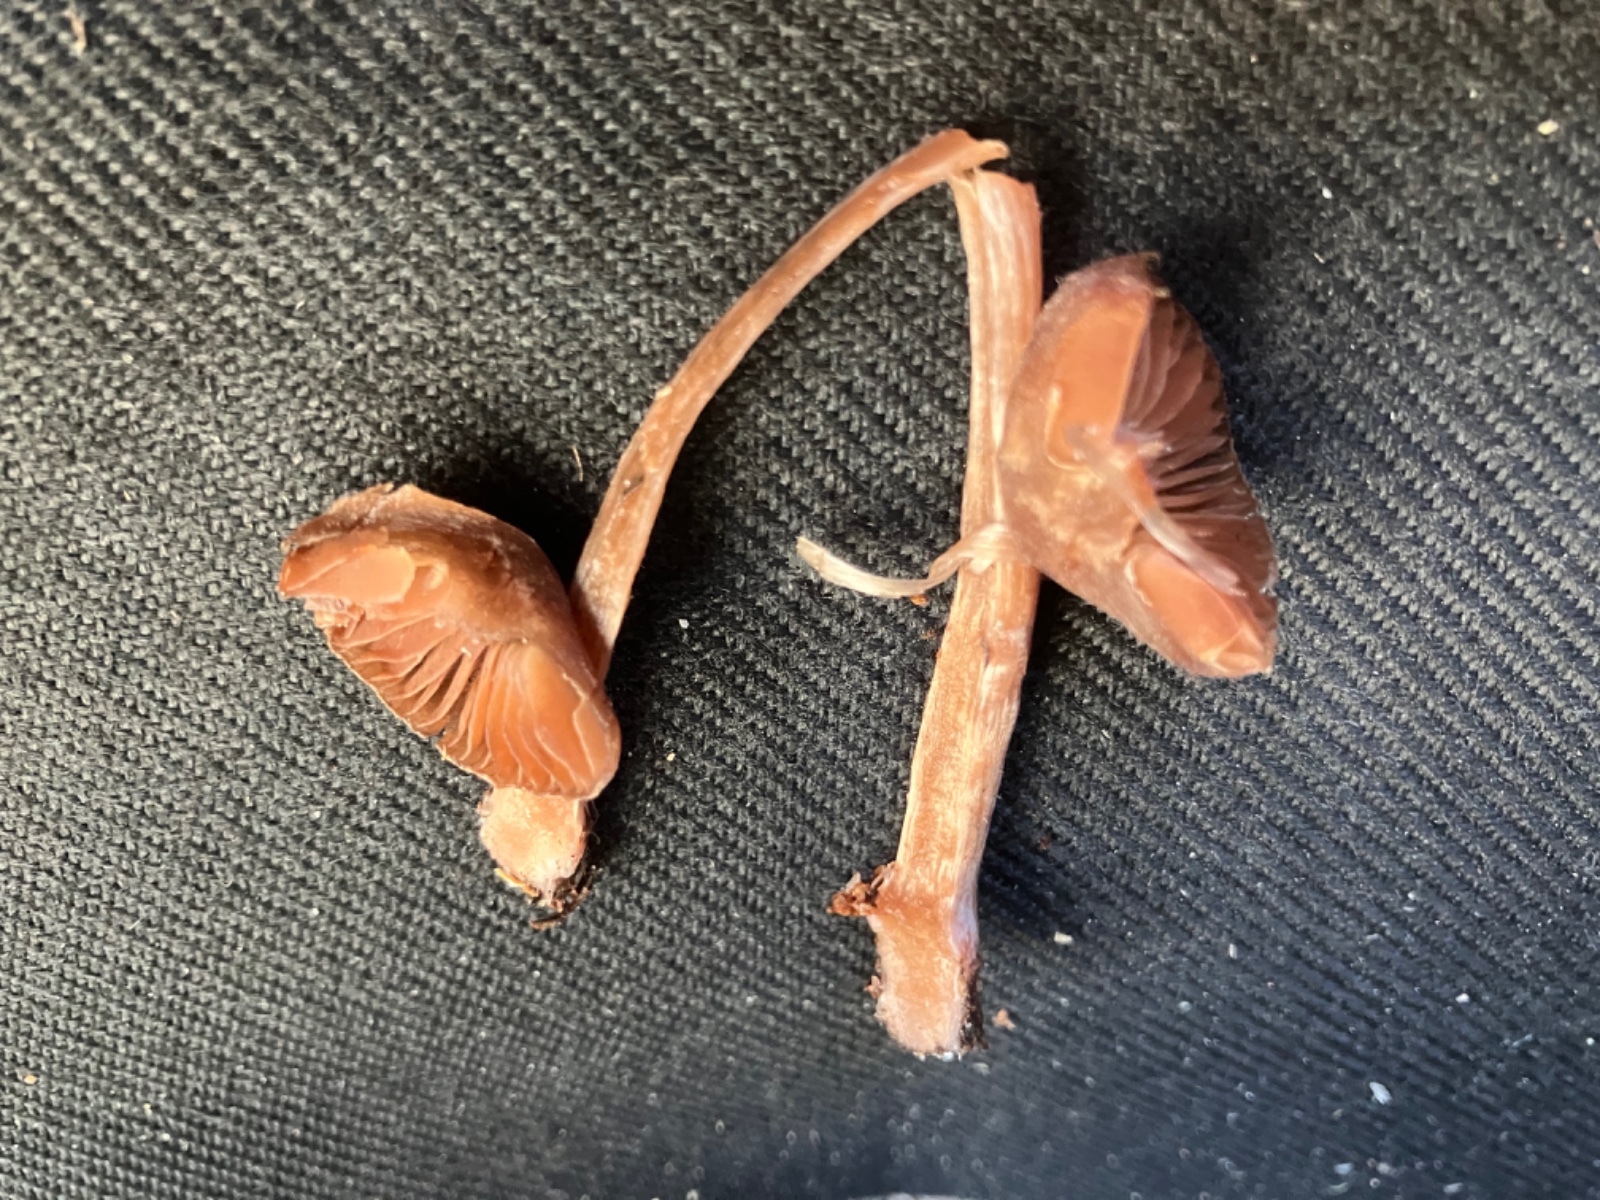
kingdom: Fungi
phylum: Basidiomycota
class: Agaricomycetes
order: Agaricales
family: Cortinariaceae
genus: Cortinarius
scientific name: Cortinarius
